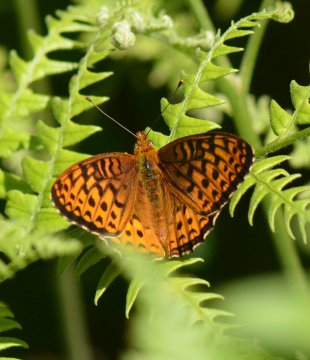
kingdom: Animalia
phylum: Arthropoda
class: Insecta
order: Lepidoptera
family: Nymphalidae
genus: Speyeria
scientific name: Speyeria atlantis
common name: Atlantis Fritillary
